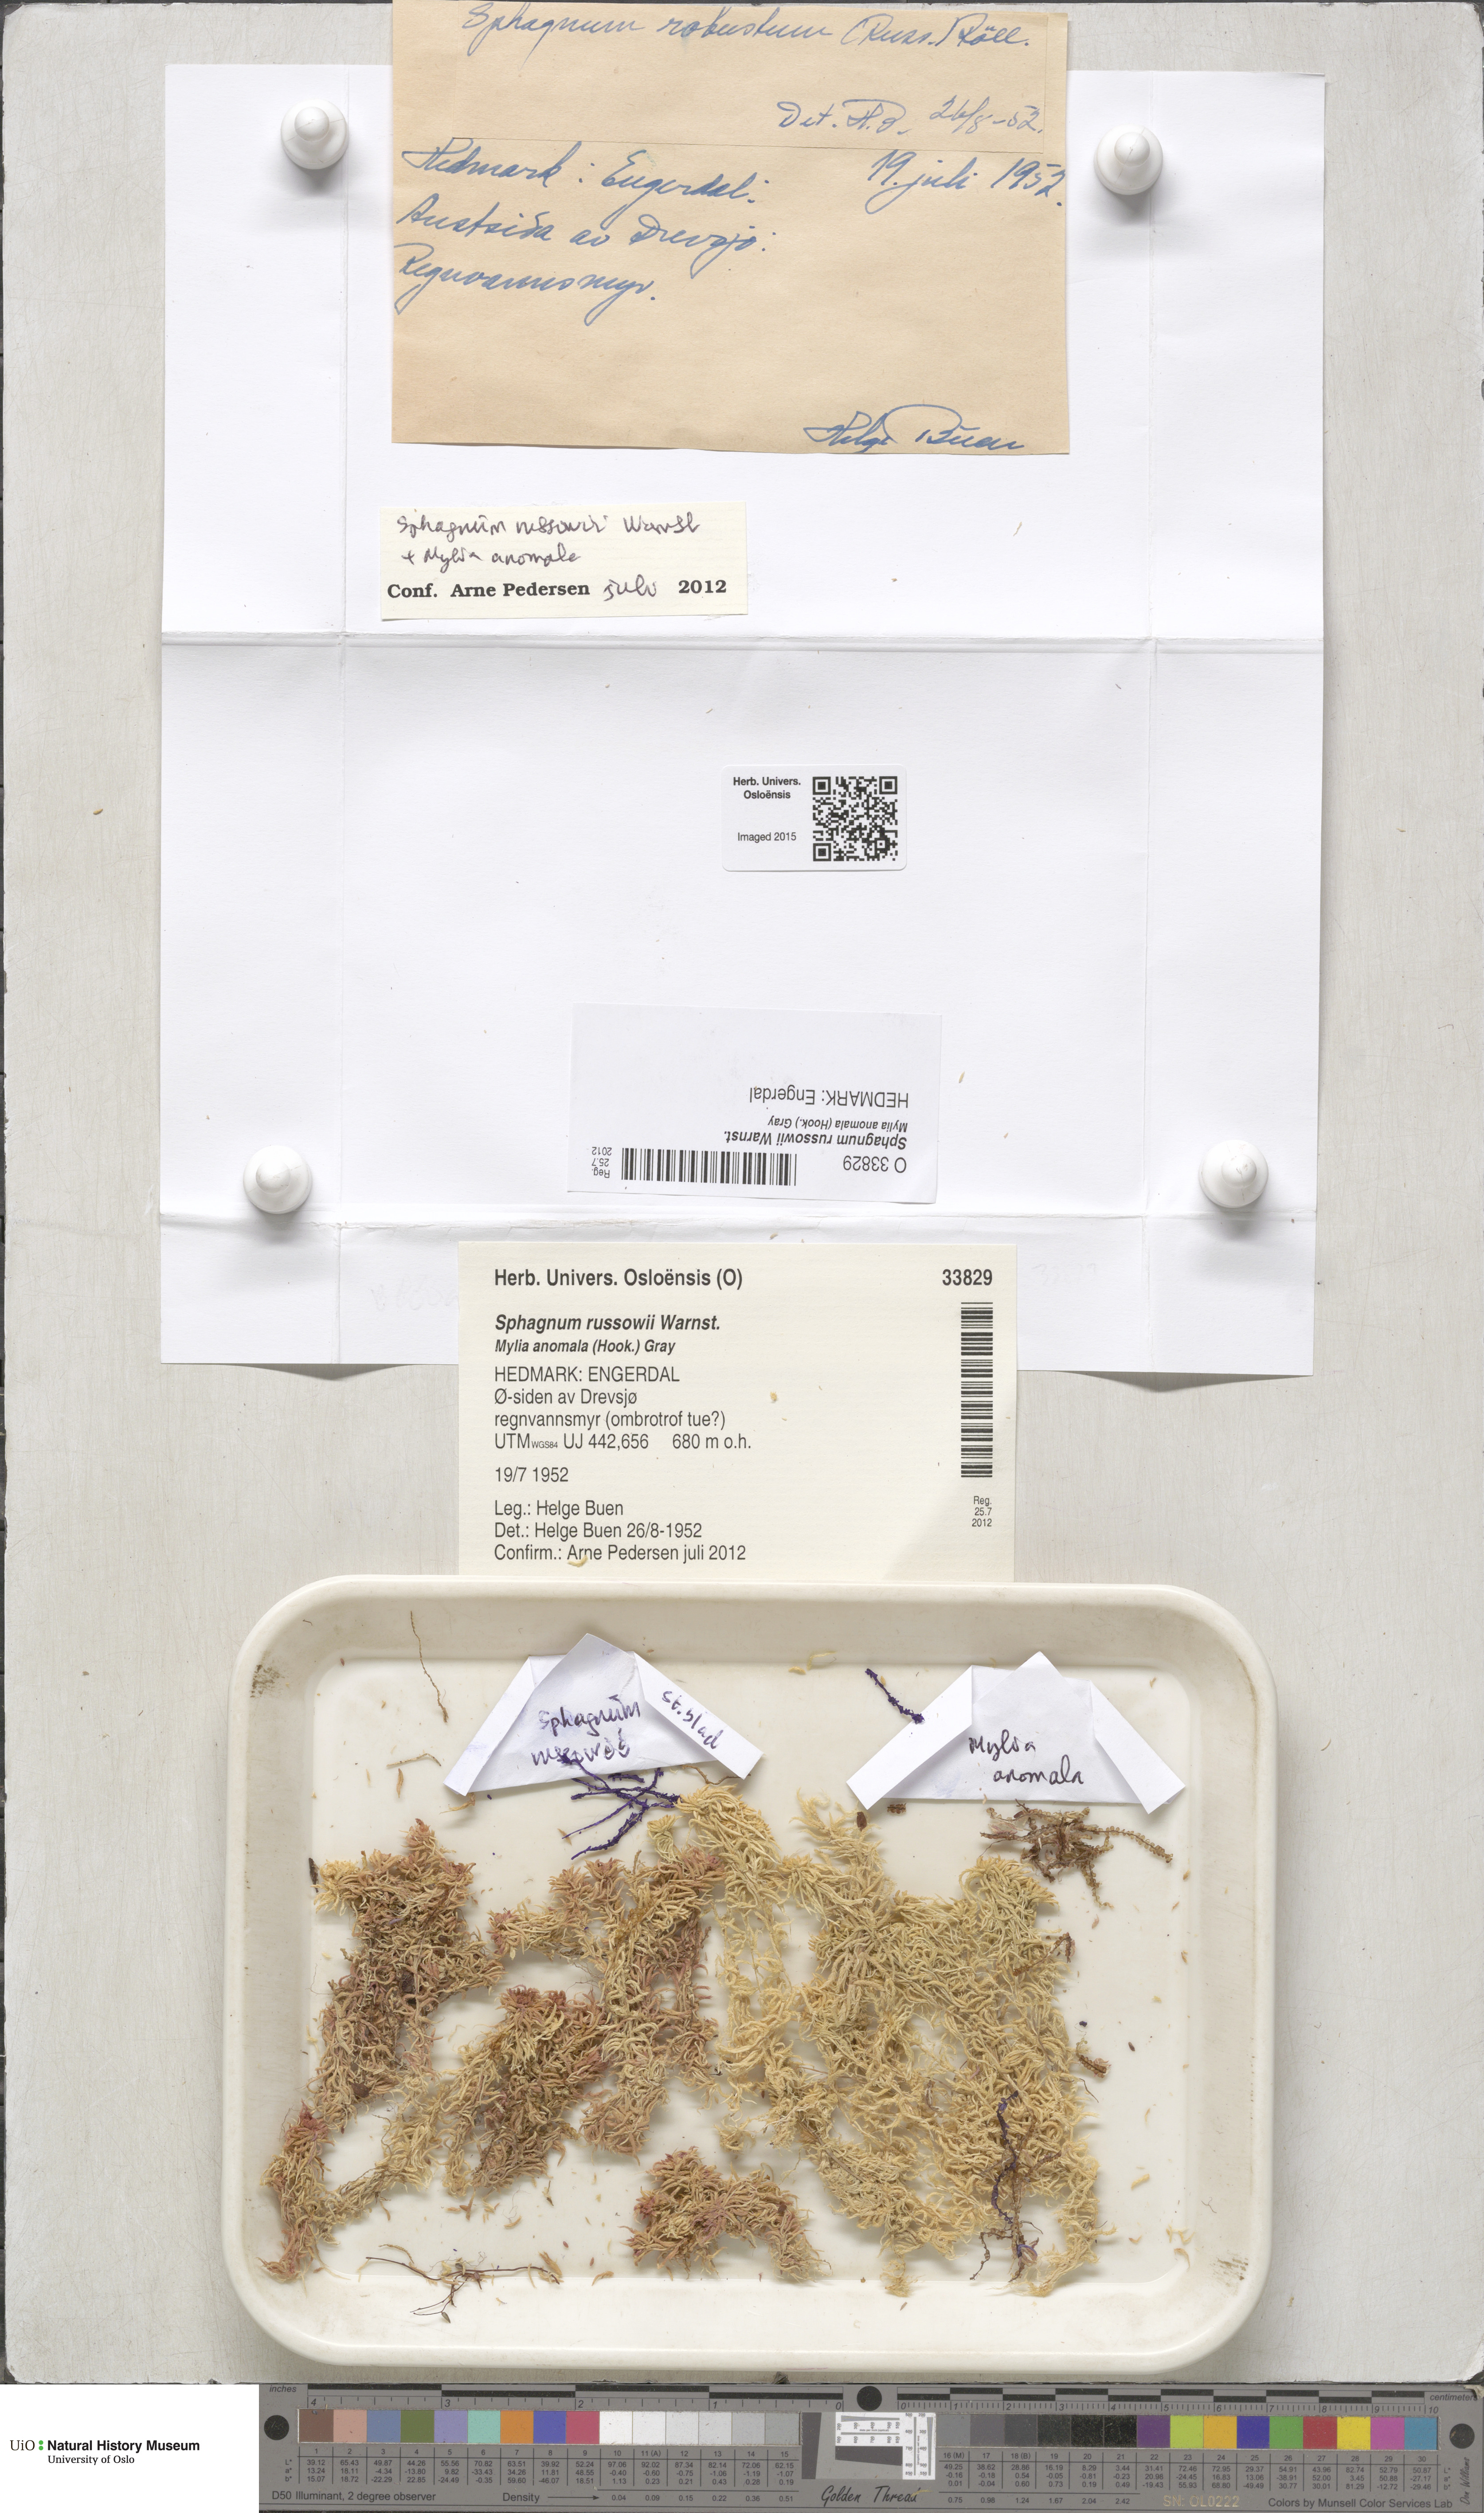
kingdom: Plantae
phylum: Bryophyta
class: Sphagnopsida
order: Sphagnales
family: Sphagnaceae
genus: Sphagnum
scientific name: Sphagnum russowii
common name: Russow's peat moss
